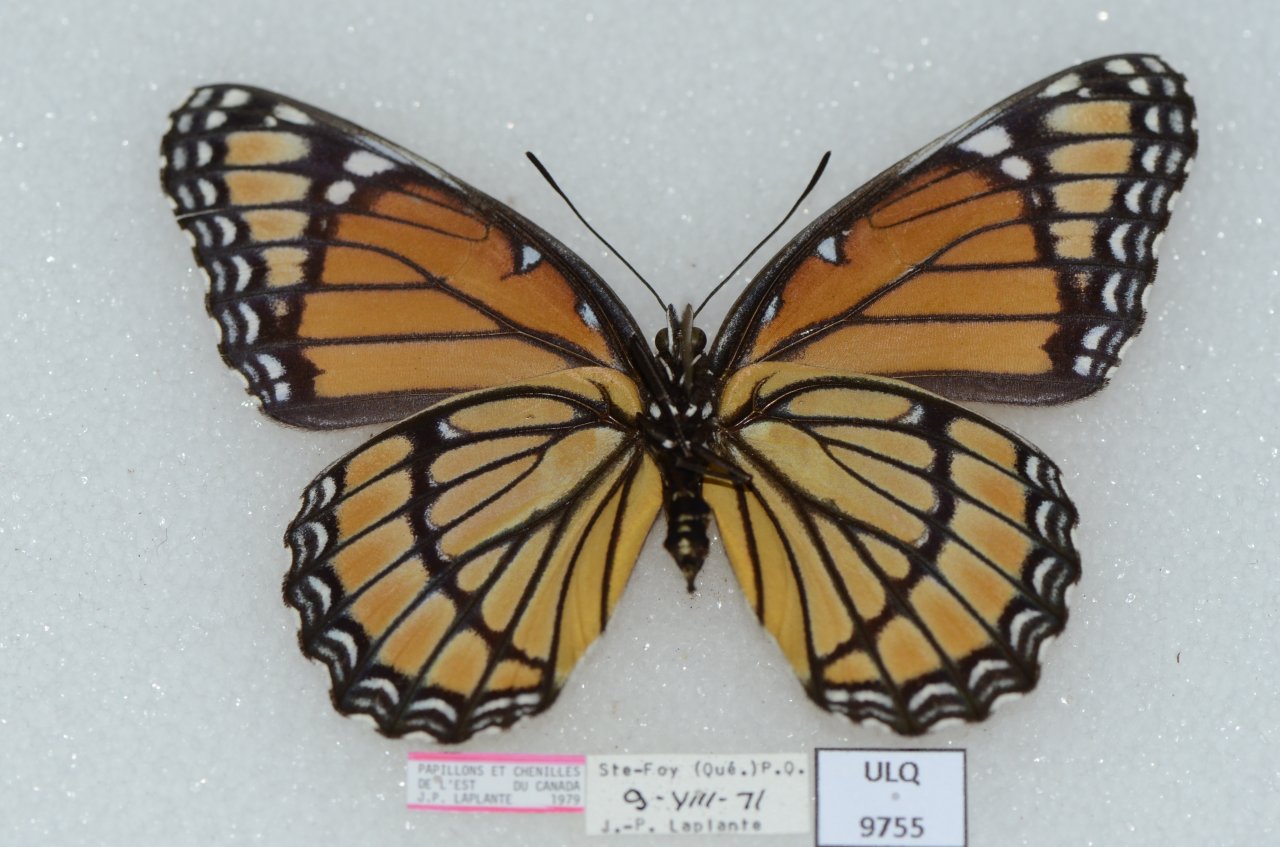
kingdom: Animalia
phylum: Arthropoda
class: Insecta
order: Lepidoptera
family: Nymphalidae
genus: Danaus
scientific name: Danaus plexippus
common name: Monarch
